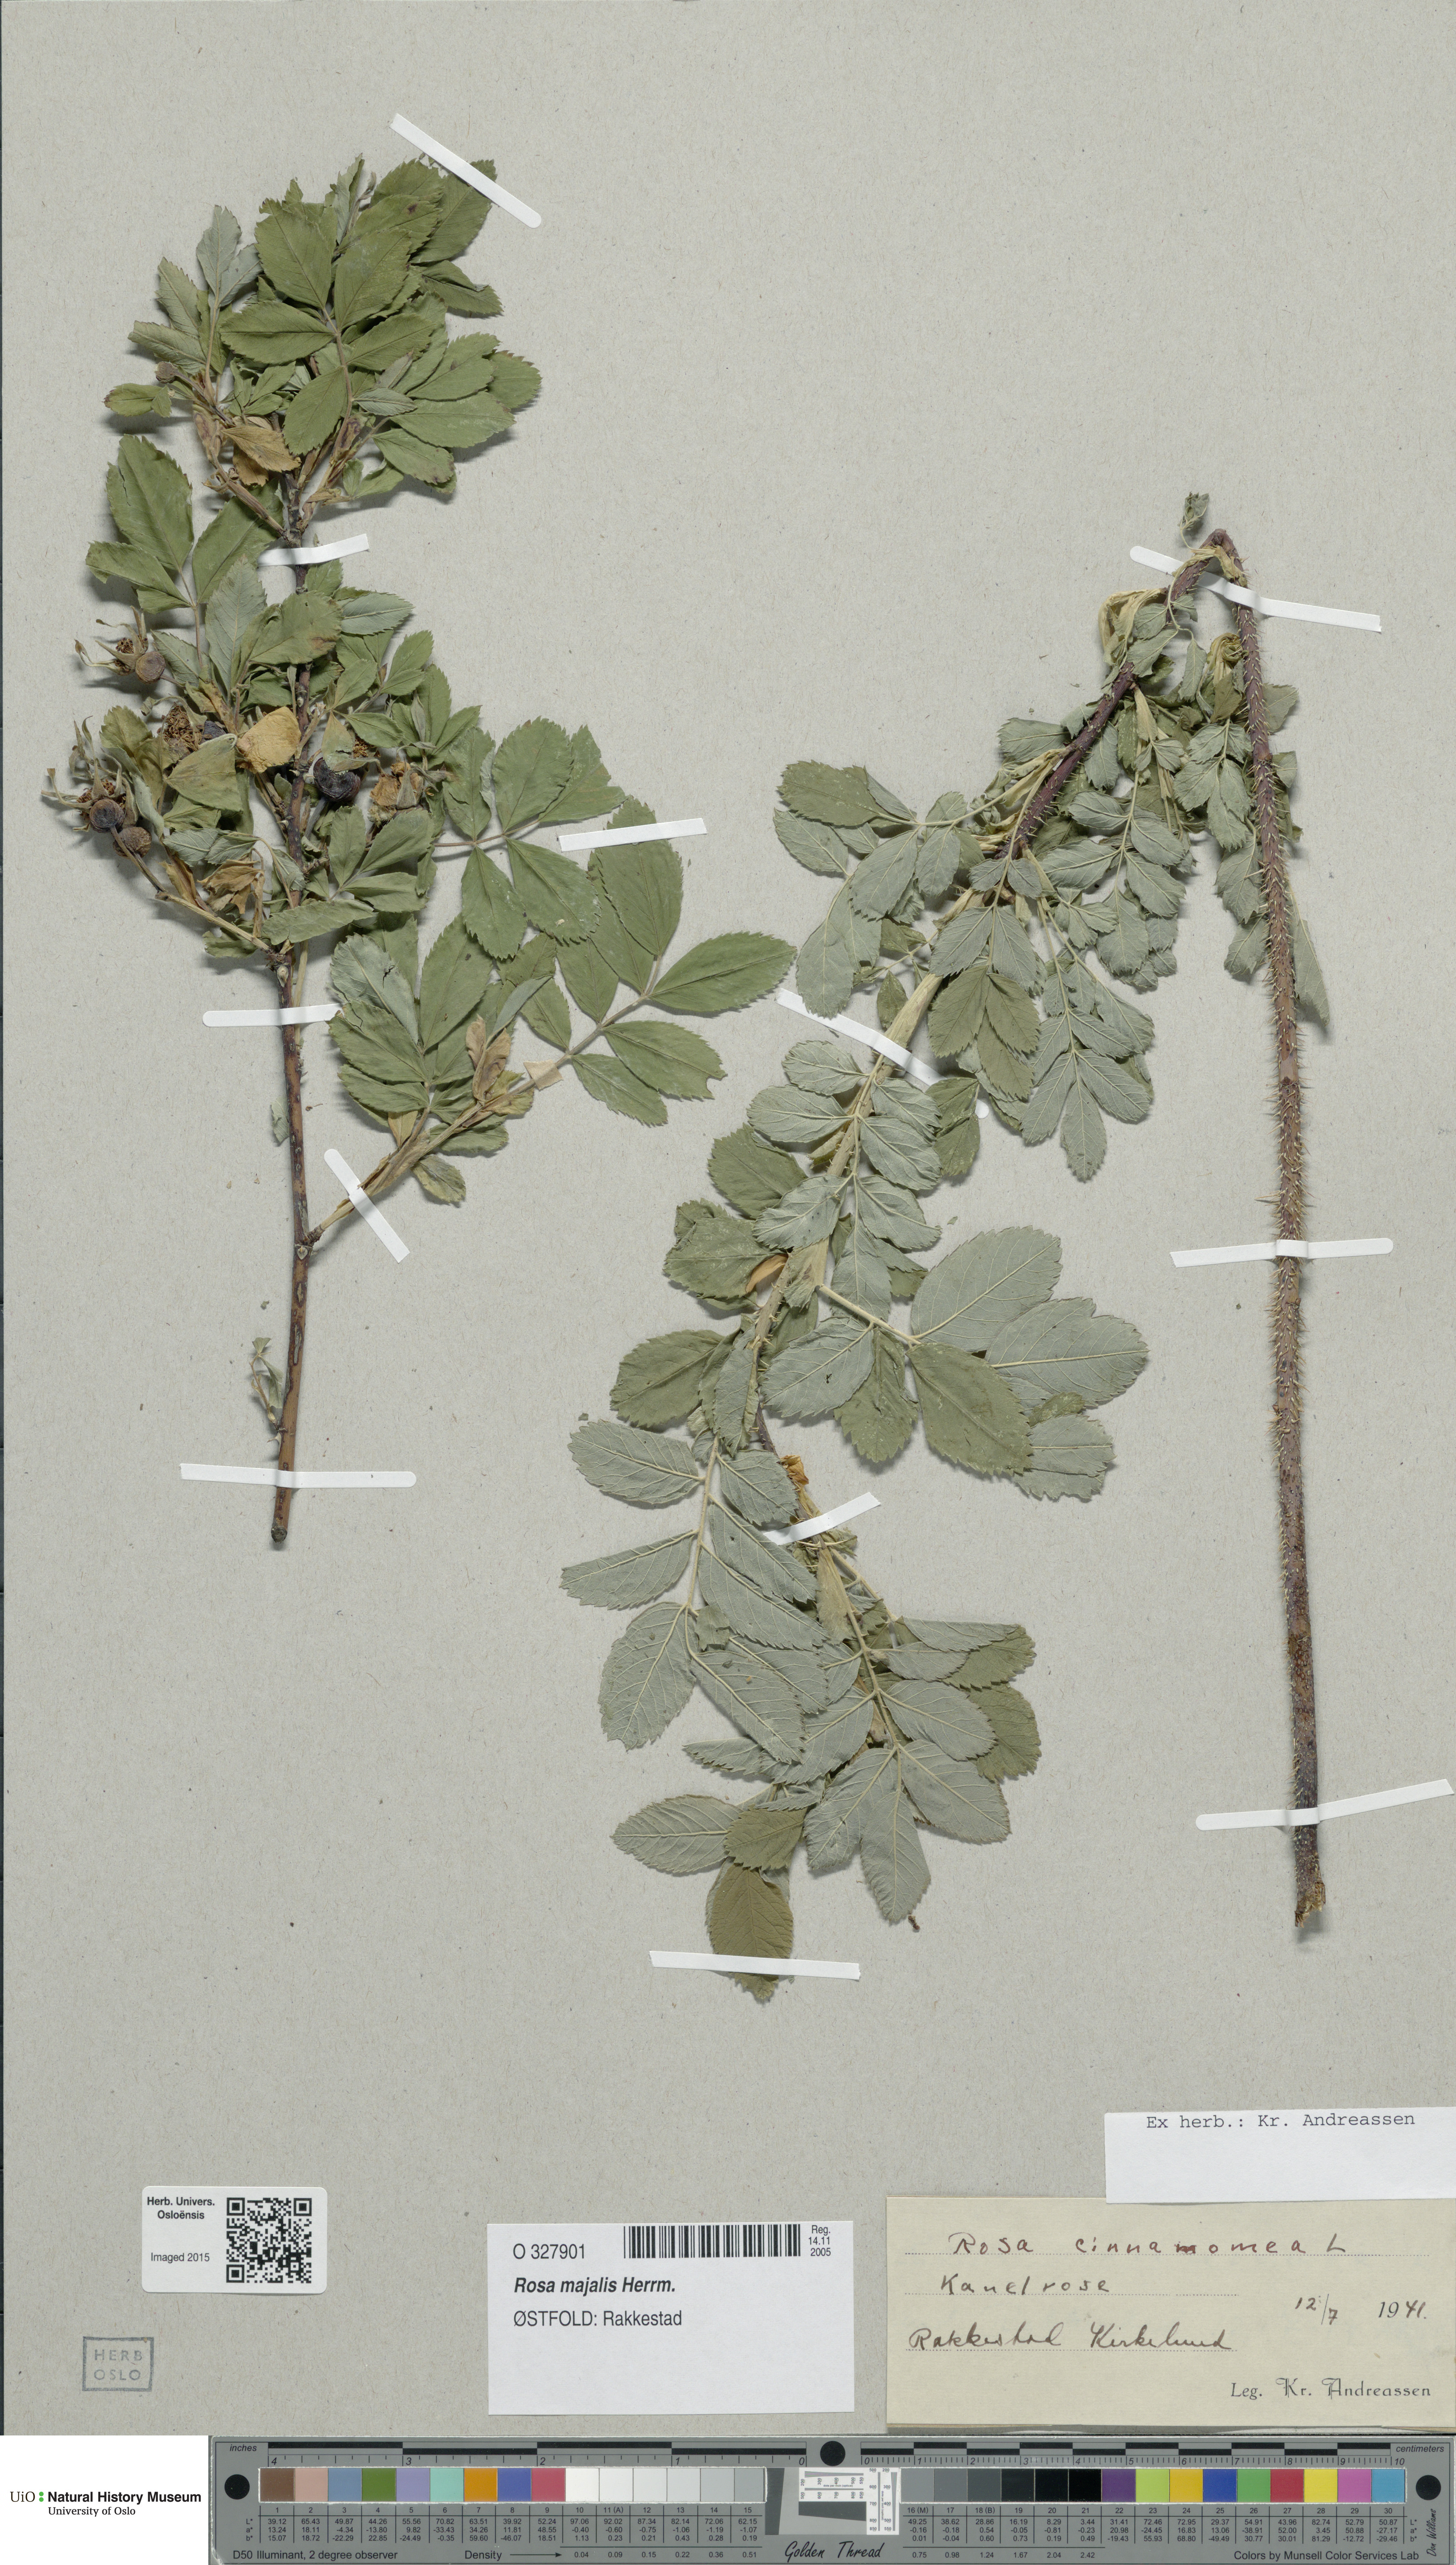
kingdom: Plantae
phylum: Tracheophyta
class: Magnoliopsida
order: Rosales
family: Rosaceae
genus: Rosa
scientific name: Rosa pendulina
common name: Alpine rose
